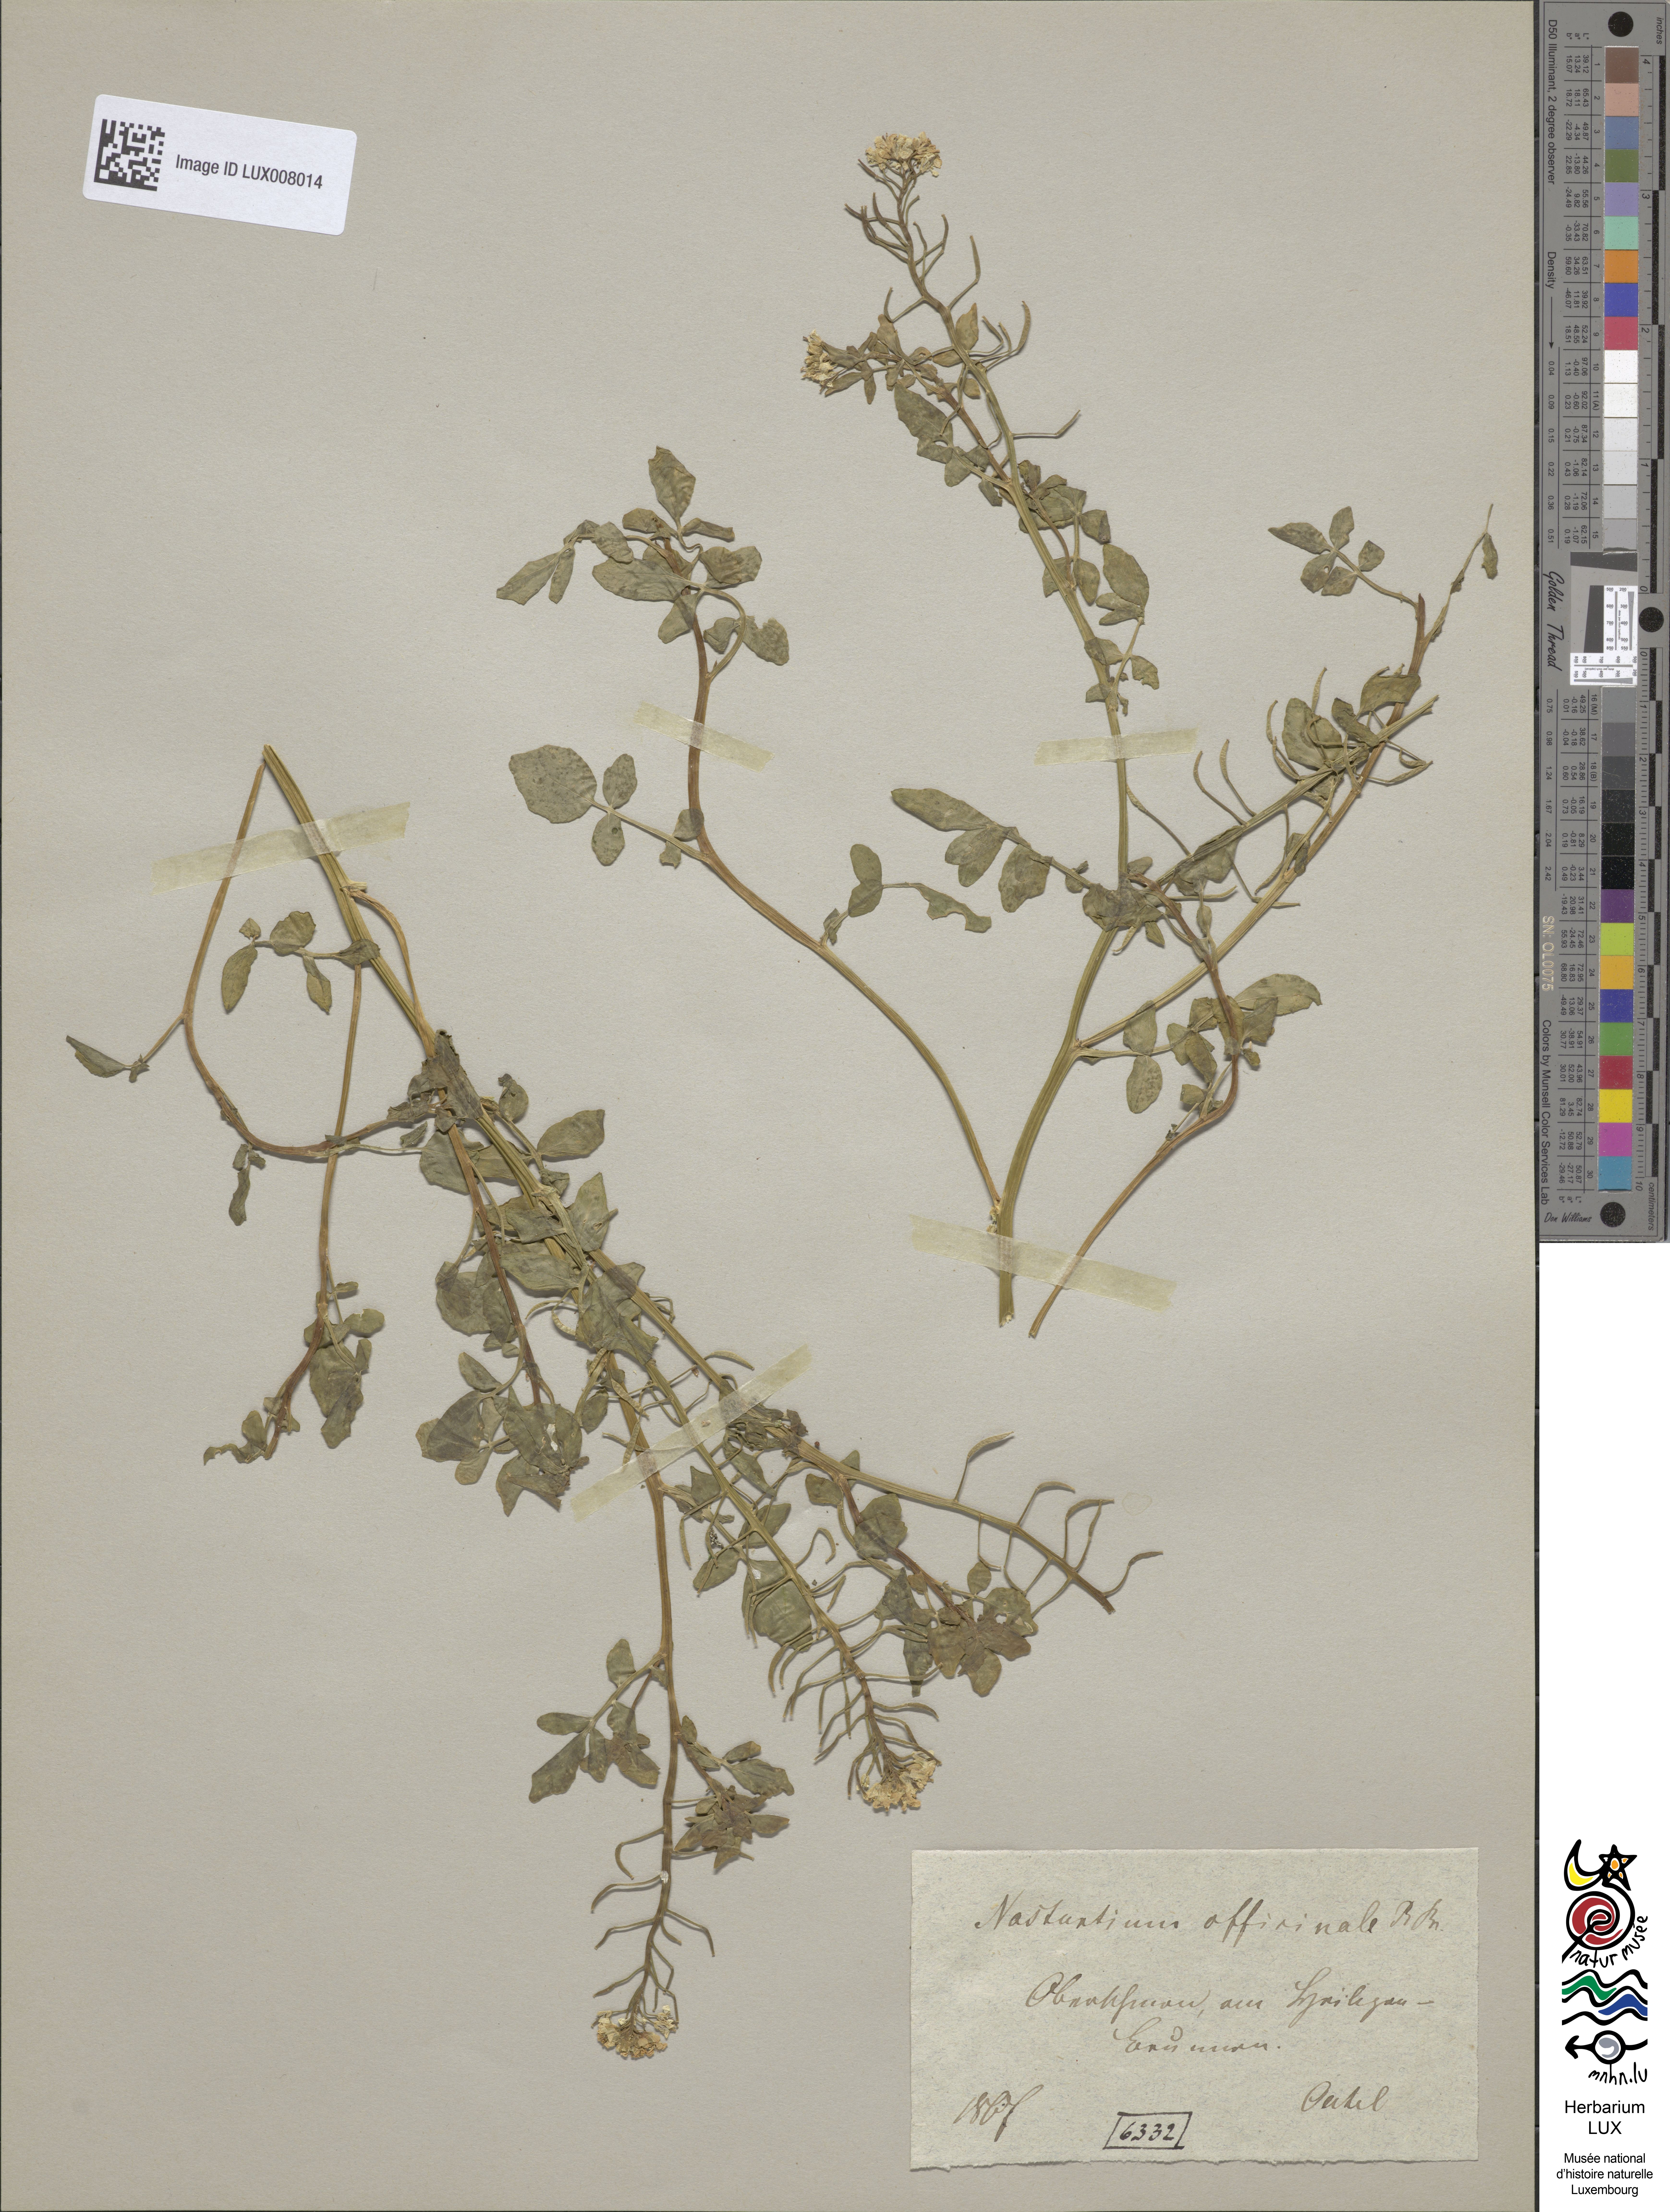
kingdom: Plantae
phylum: Tracheophyta
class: Magnoliopsida
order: Brassicales
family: Brassicaceae
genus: Nasturtium
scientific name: Nasturtium officinale
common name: Watercress
